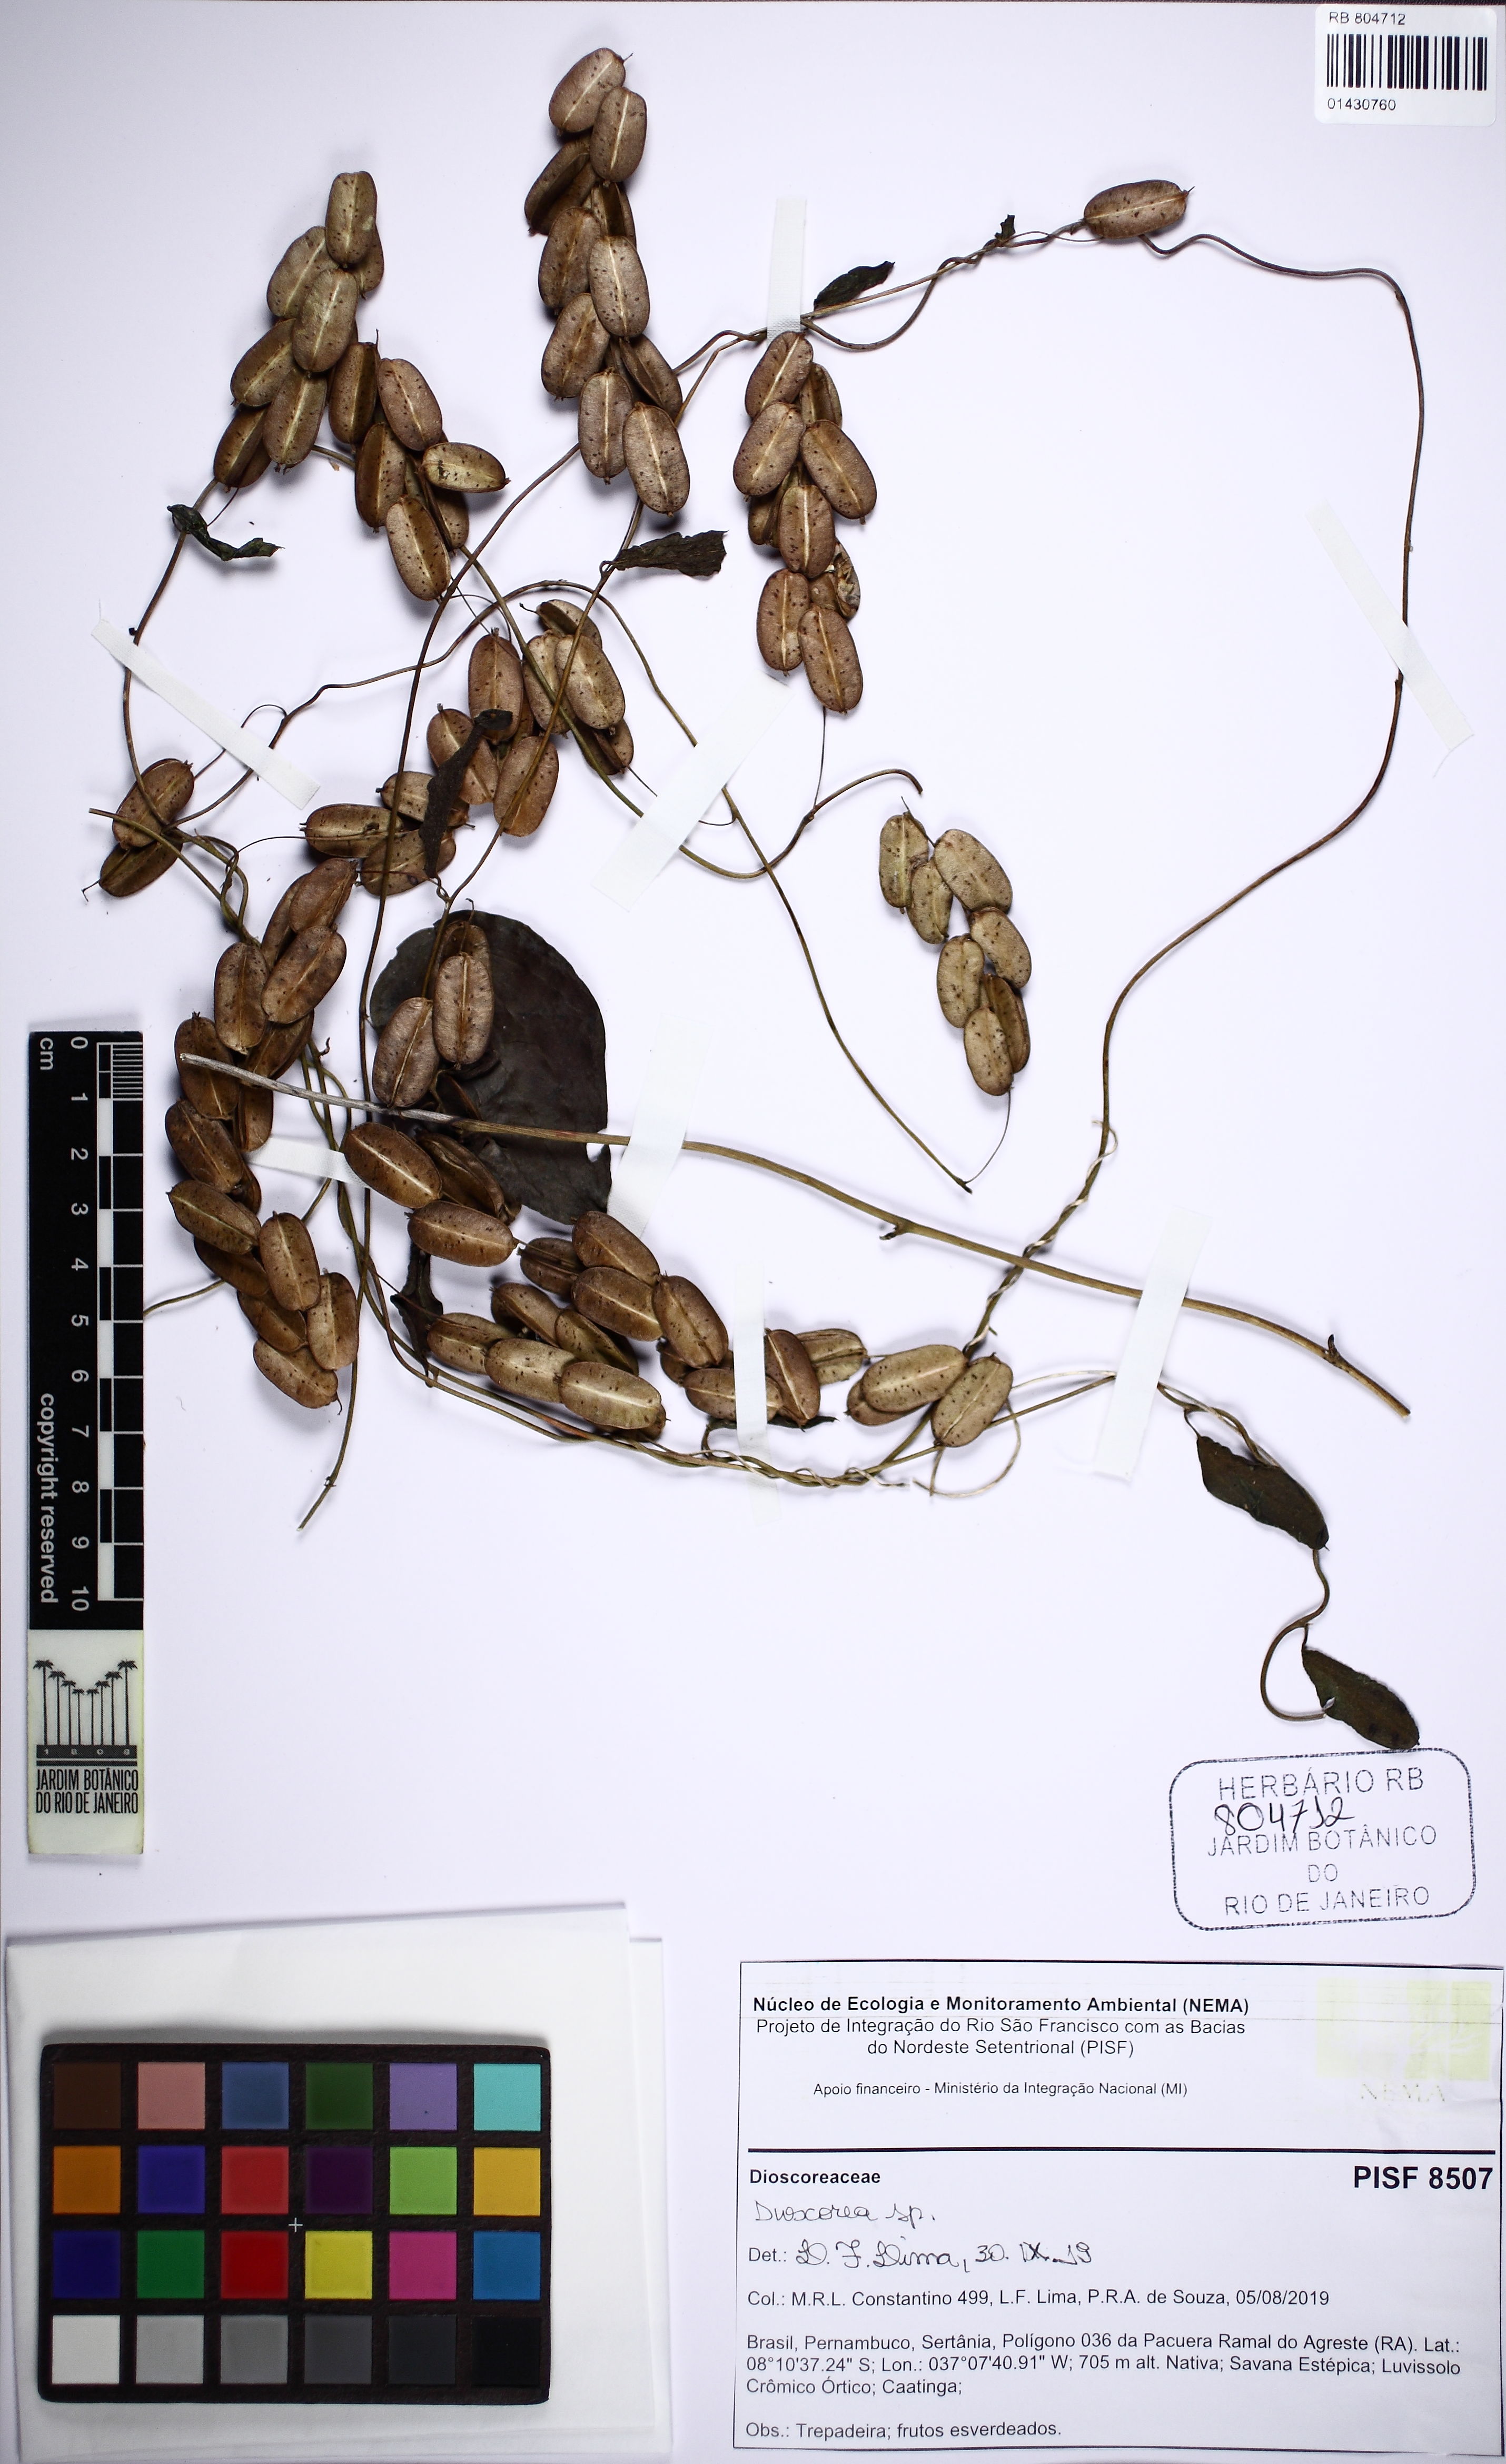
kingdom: Plantae
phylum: Tracheophyta
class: Liliopsida
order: Dioscoreales
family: Dioscoreaceae
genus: Dioscorea
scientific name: Dioscorea
